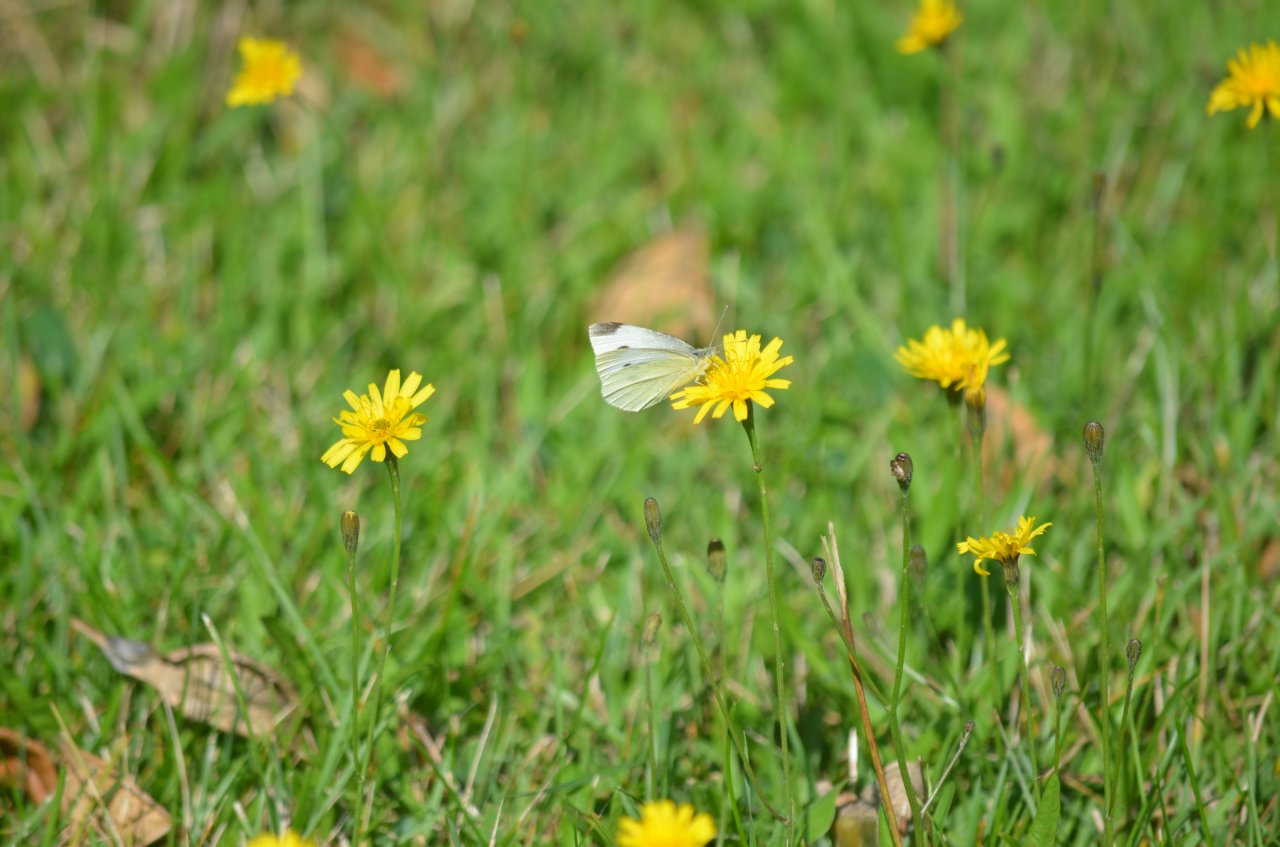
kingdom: Animalia
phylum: Arthropoda
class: Insecta
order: Lepidoptera
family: Pieridae
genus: Pieris
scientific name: Pieris rapae
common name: Cabbage White
